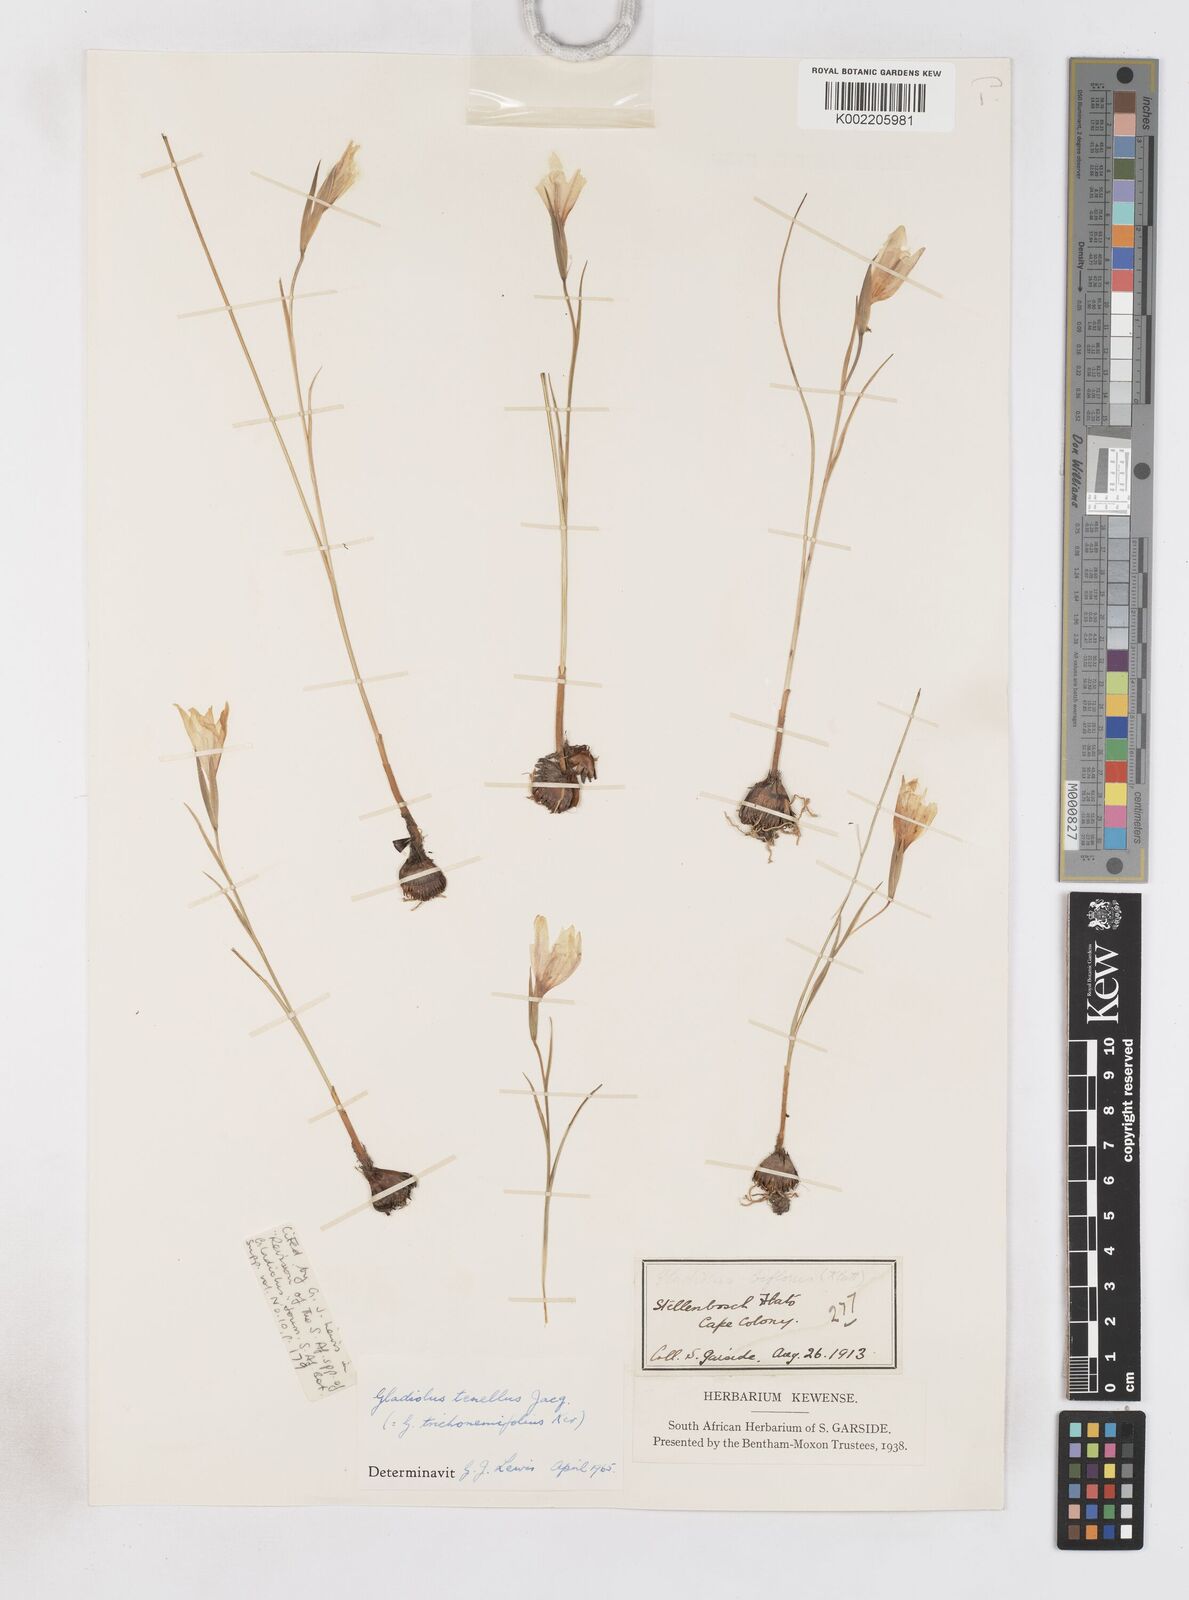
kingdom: Plantae
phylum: Tracheophyta
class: Liliopsida
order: Asparagales
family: Iridaceae
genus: Gladiolus
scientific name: Gladiolus carinatus
